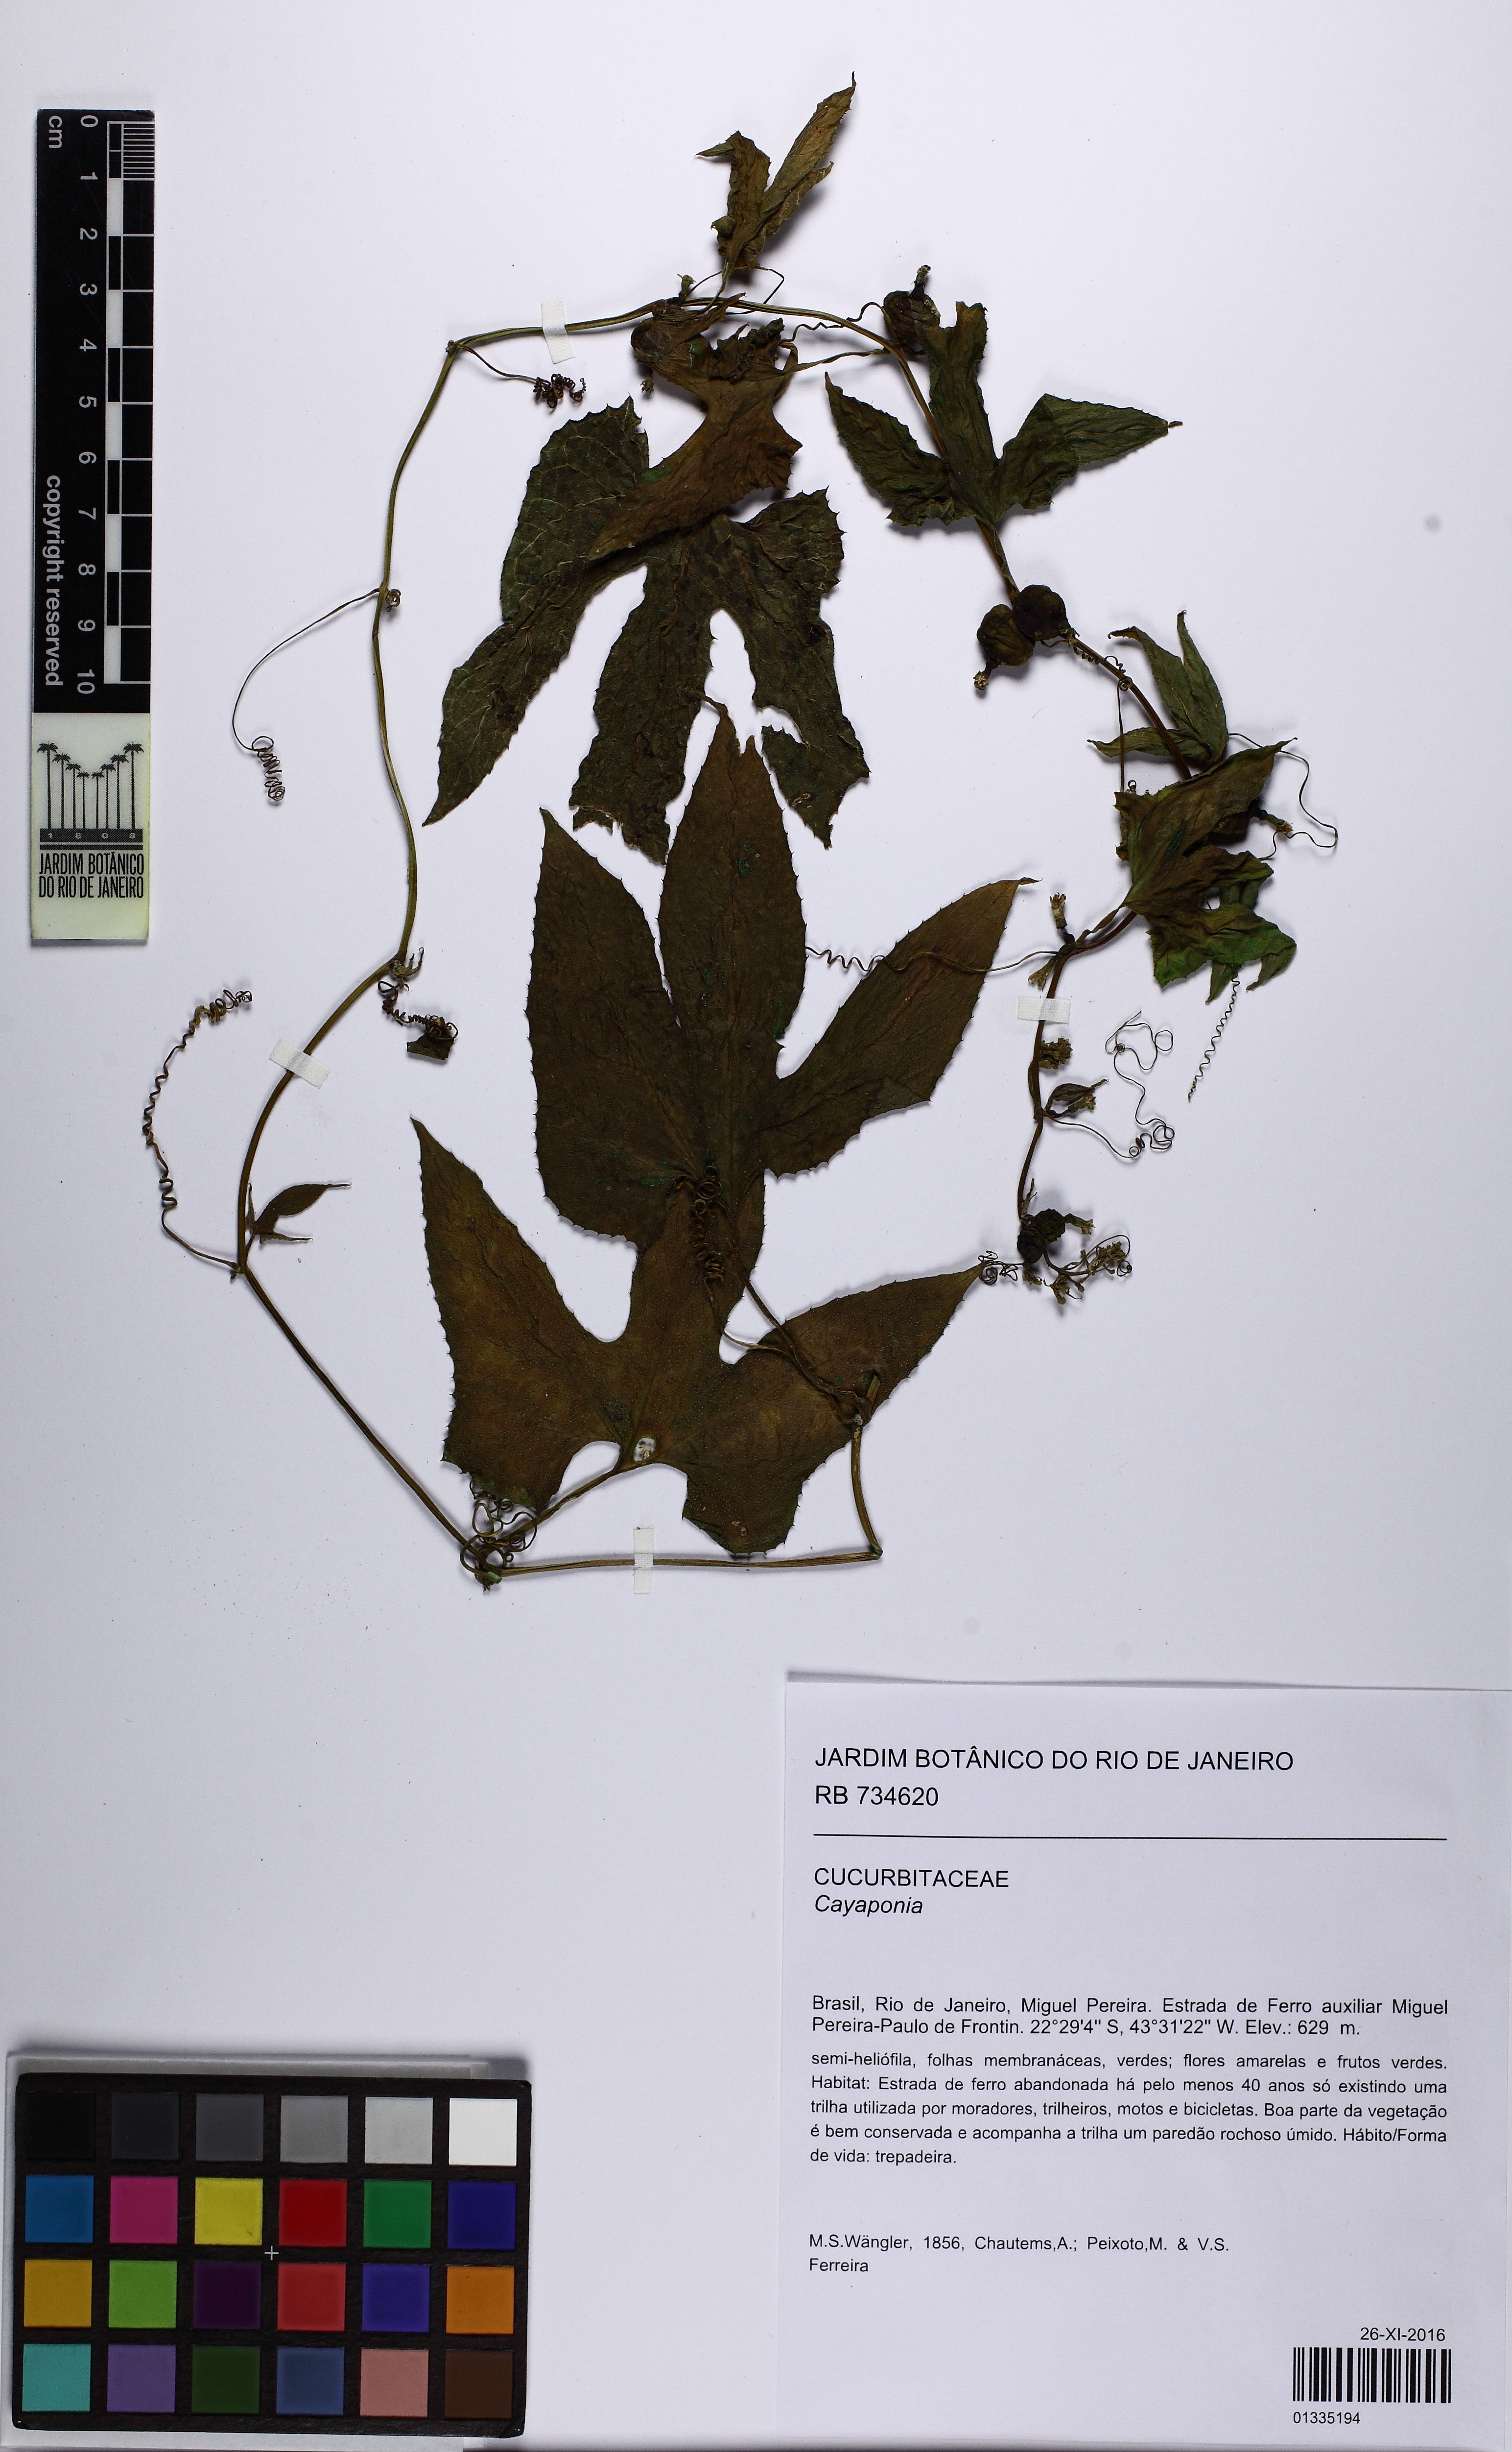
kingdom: Plantae
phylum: Tracheophyta
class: Magnoliopsida
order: Cucurbitales
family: Cucurbitaceae
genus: Wilbrandia
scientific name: Wilbrandia verticillata
